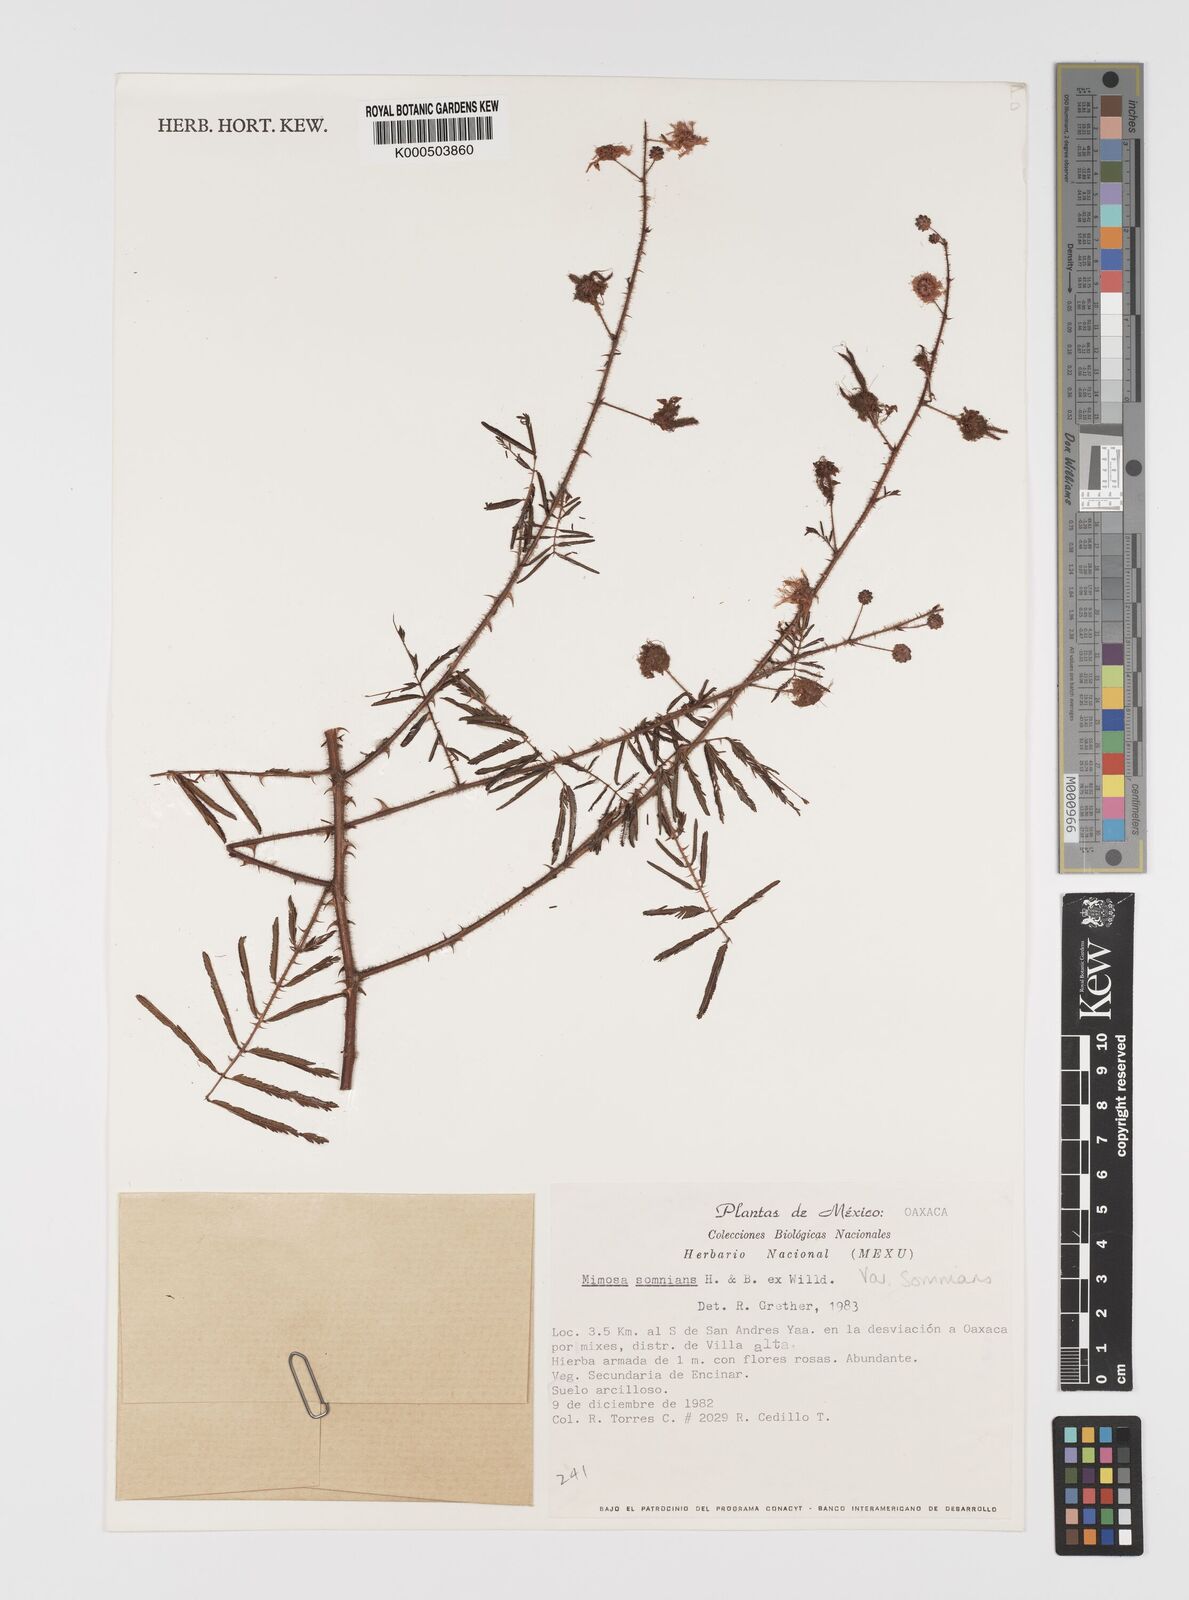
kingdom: Plantae
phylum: Tracheophyta
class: Magnoliopsida
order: Fabales
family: Fabaceae
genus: Mimosa
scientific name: Mimosa somnians
